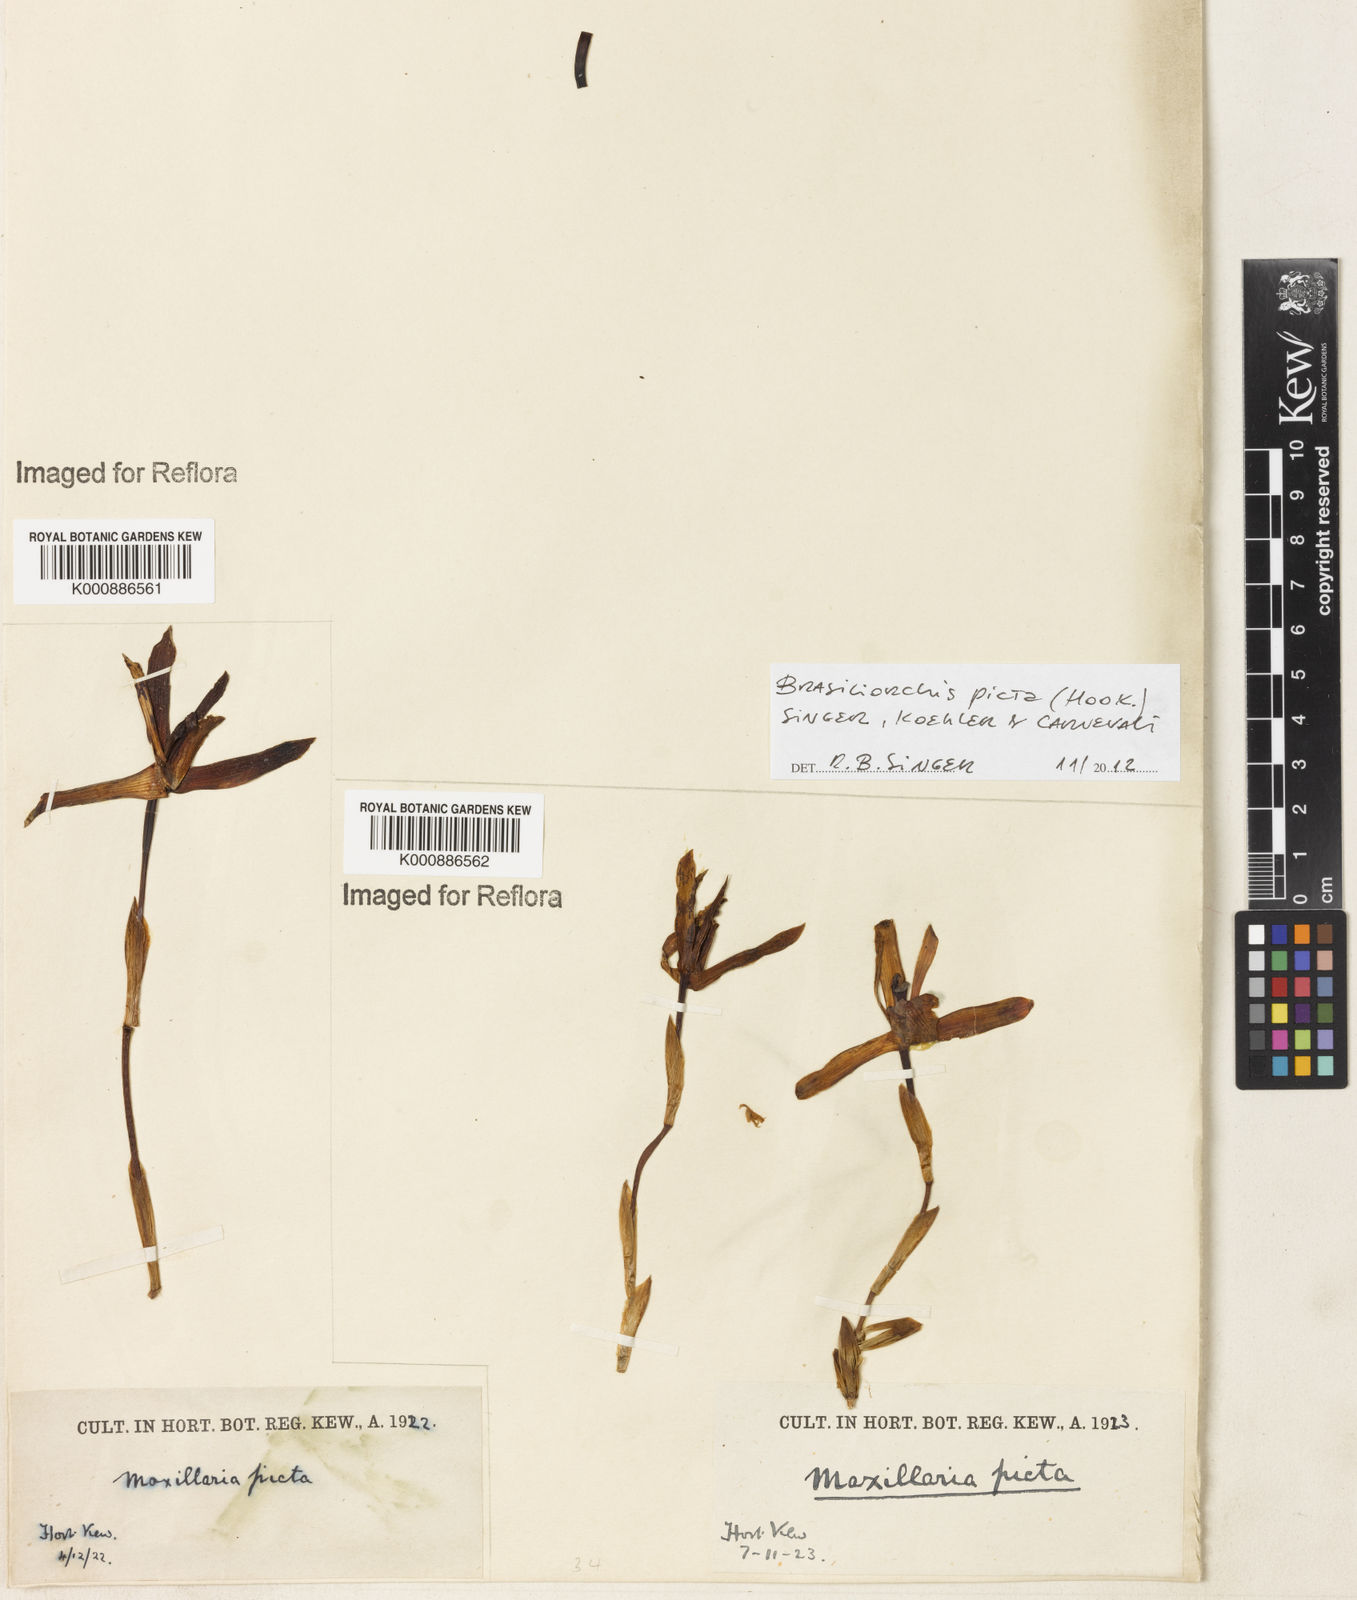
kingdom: Plantae
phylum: Tracheophyta
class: Liliopsida
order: Asparagales
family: Orchidaceae
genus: Maxillaria
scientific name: Maxillaria
